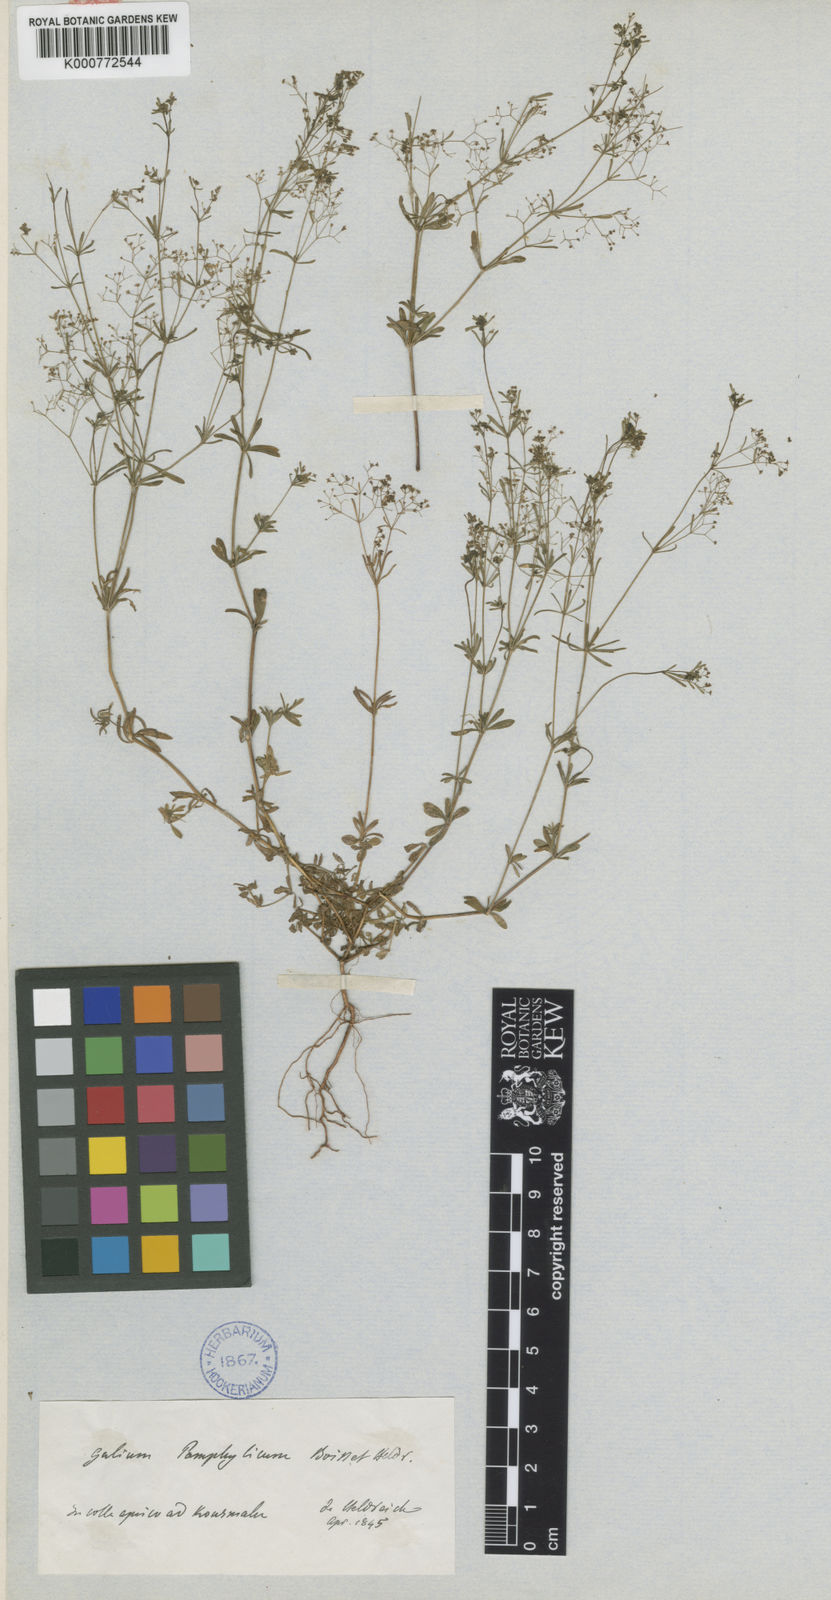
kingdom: Plantae
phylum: Tracheophyta
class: Magnoliopsida
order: Gentianales
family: Rubiaceae
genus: Galium
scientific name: Galium pamphylicum
